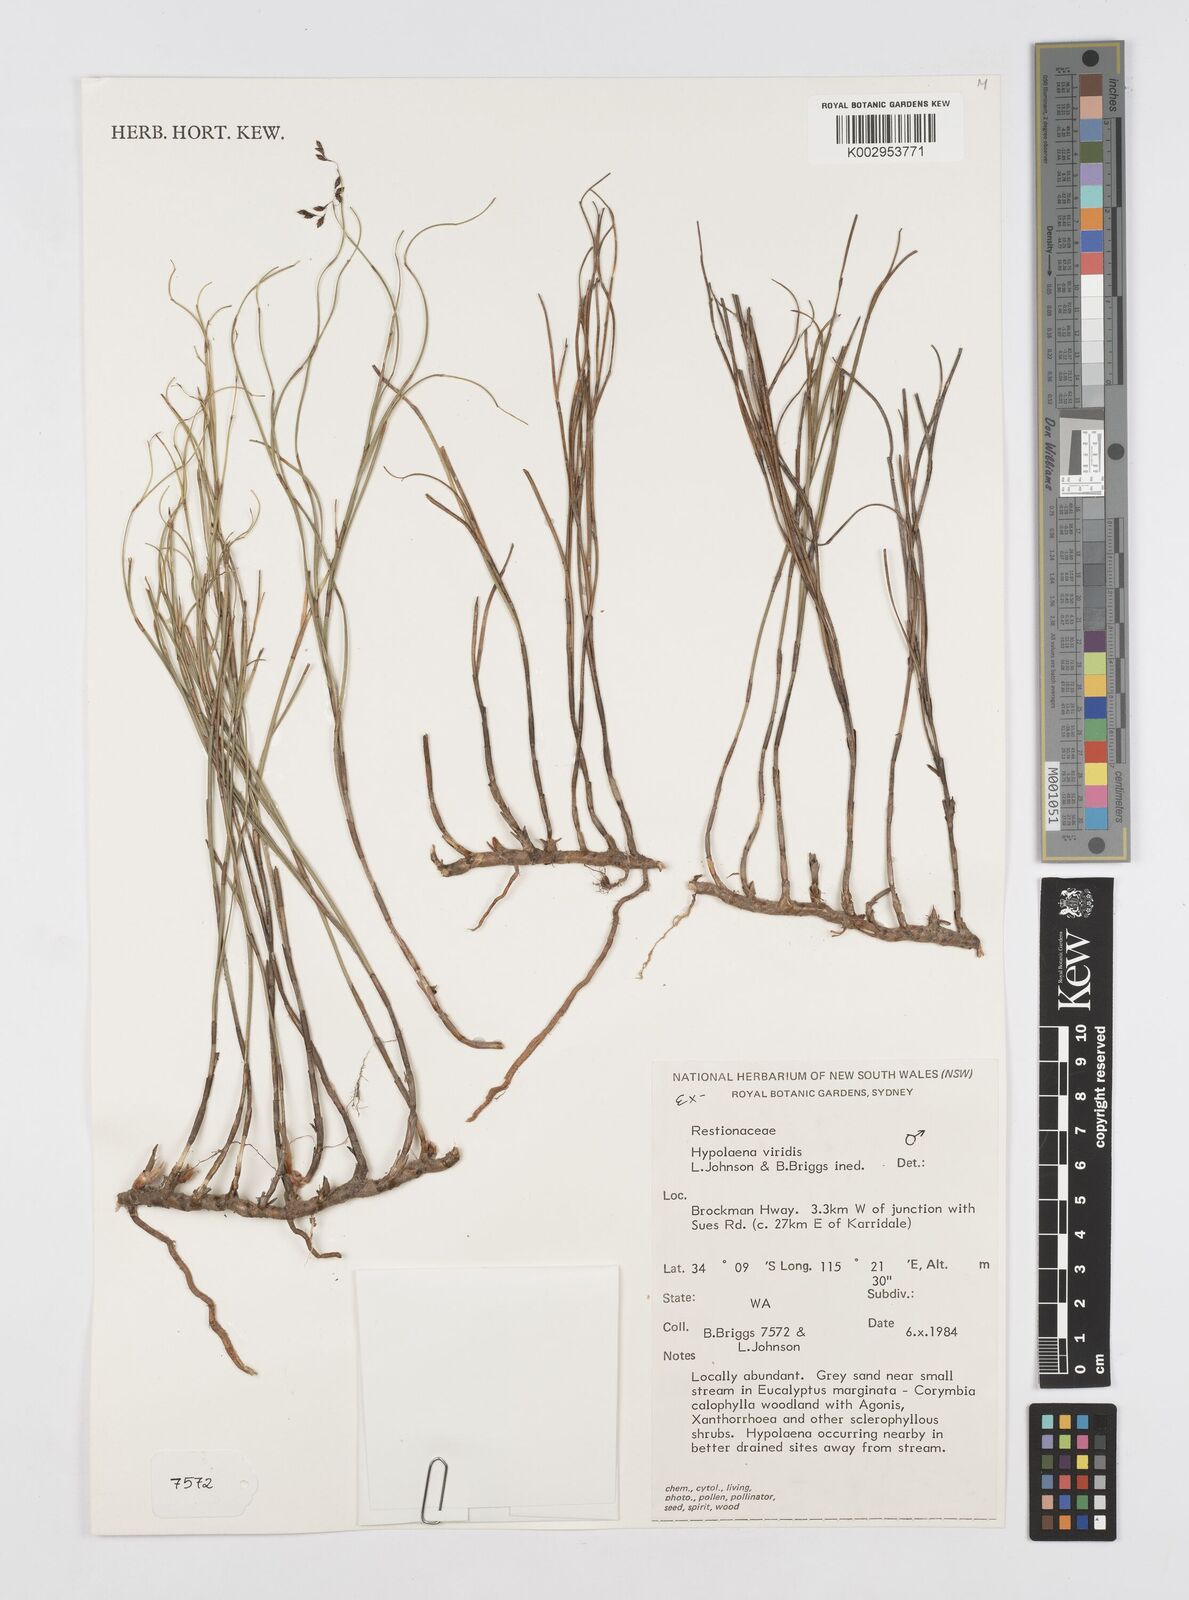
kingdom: Plantae
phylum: Tracheophyta
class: Liliopsida
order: Poales
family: Restionaceae
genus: Hypolaena
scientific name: Hypolaena viridis
